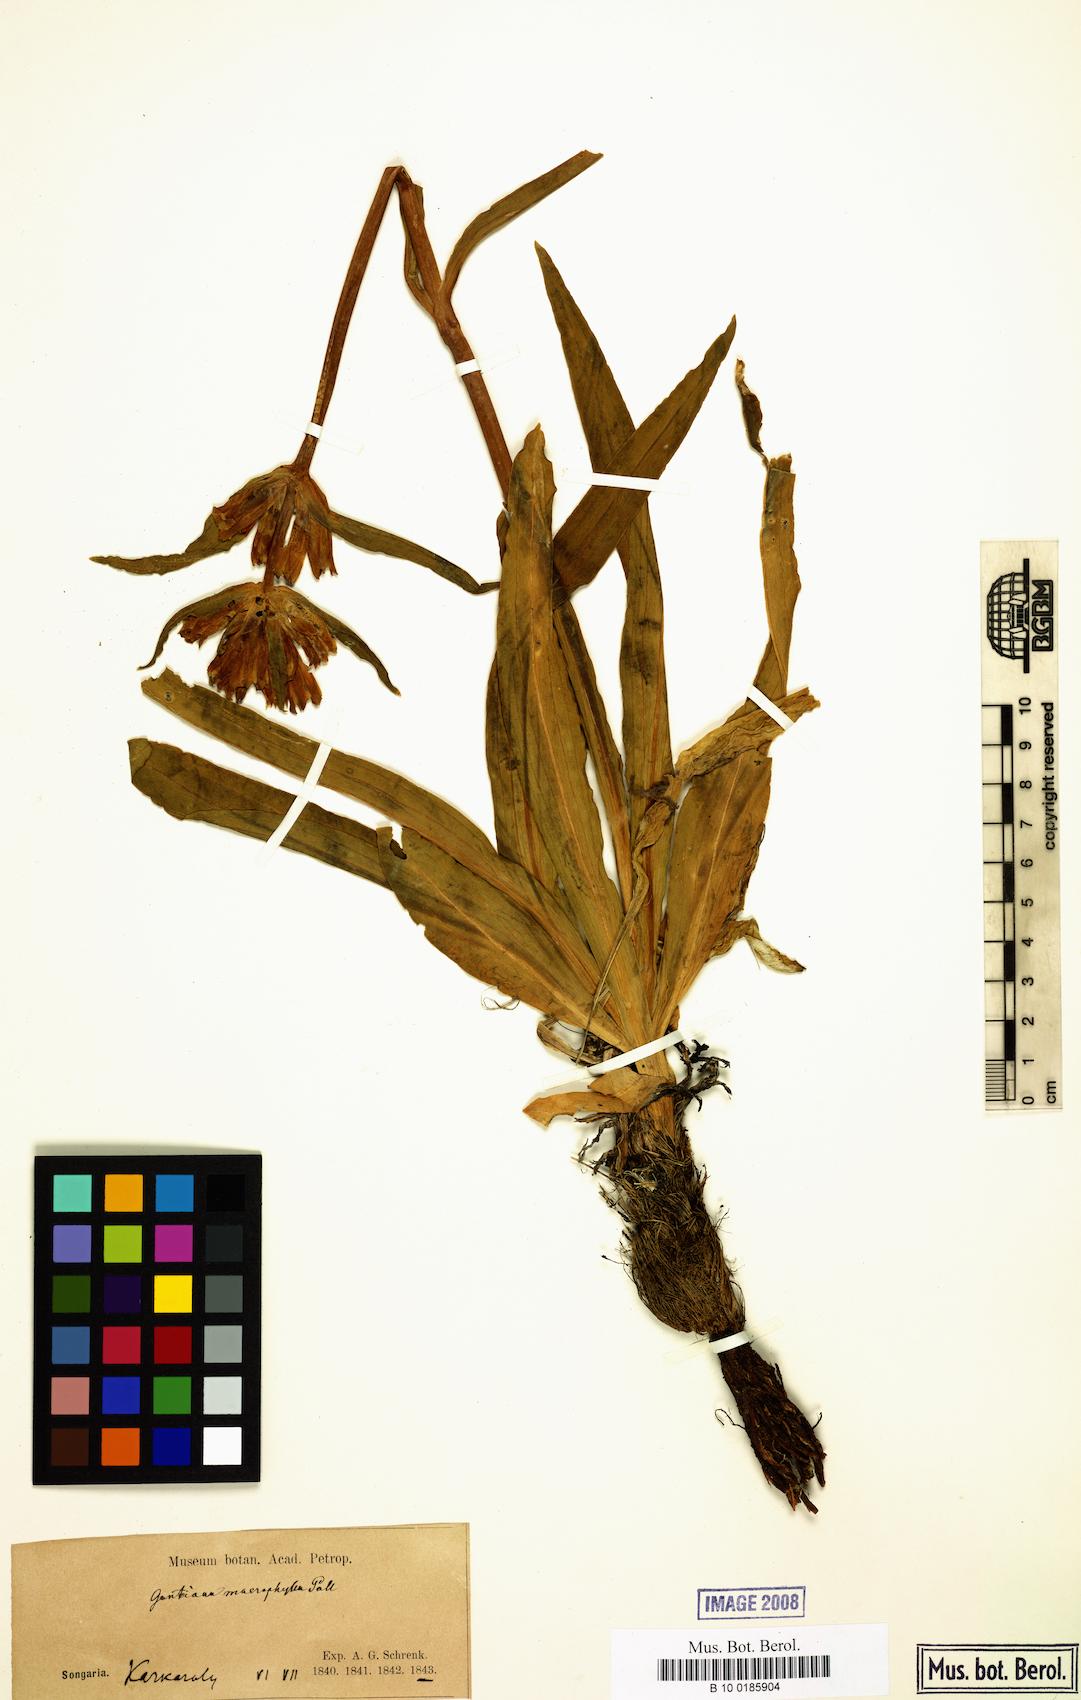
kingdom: Plantae
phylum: Tracheophyta
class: Magnoliopsida
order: Gentianales
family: Gentianaceae
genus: Gentiana
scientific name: Gentiana decumbens
